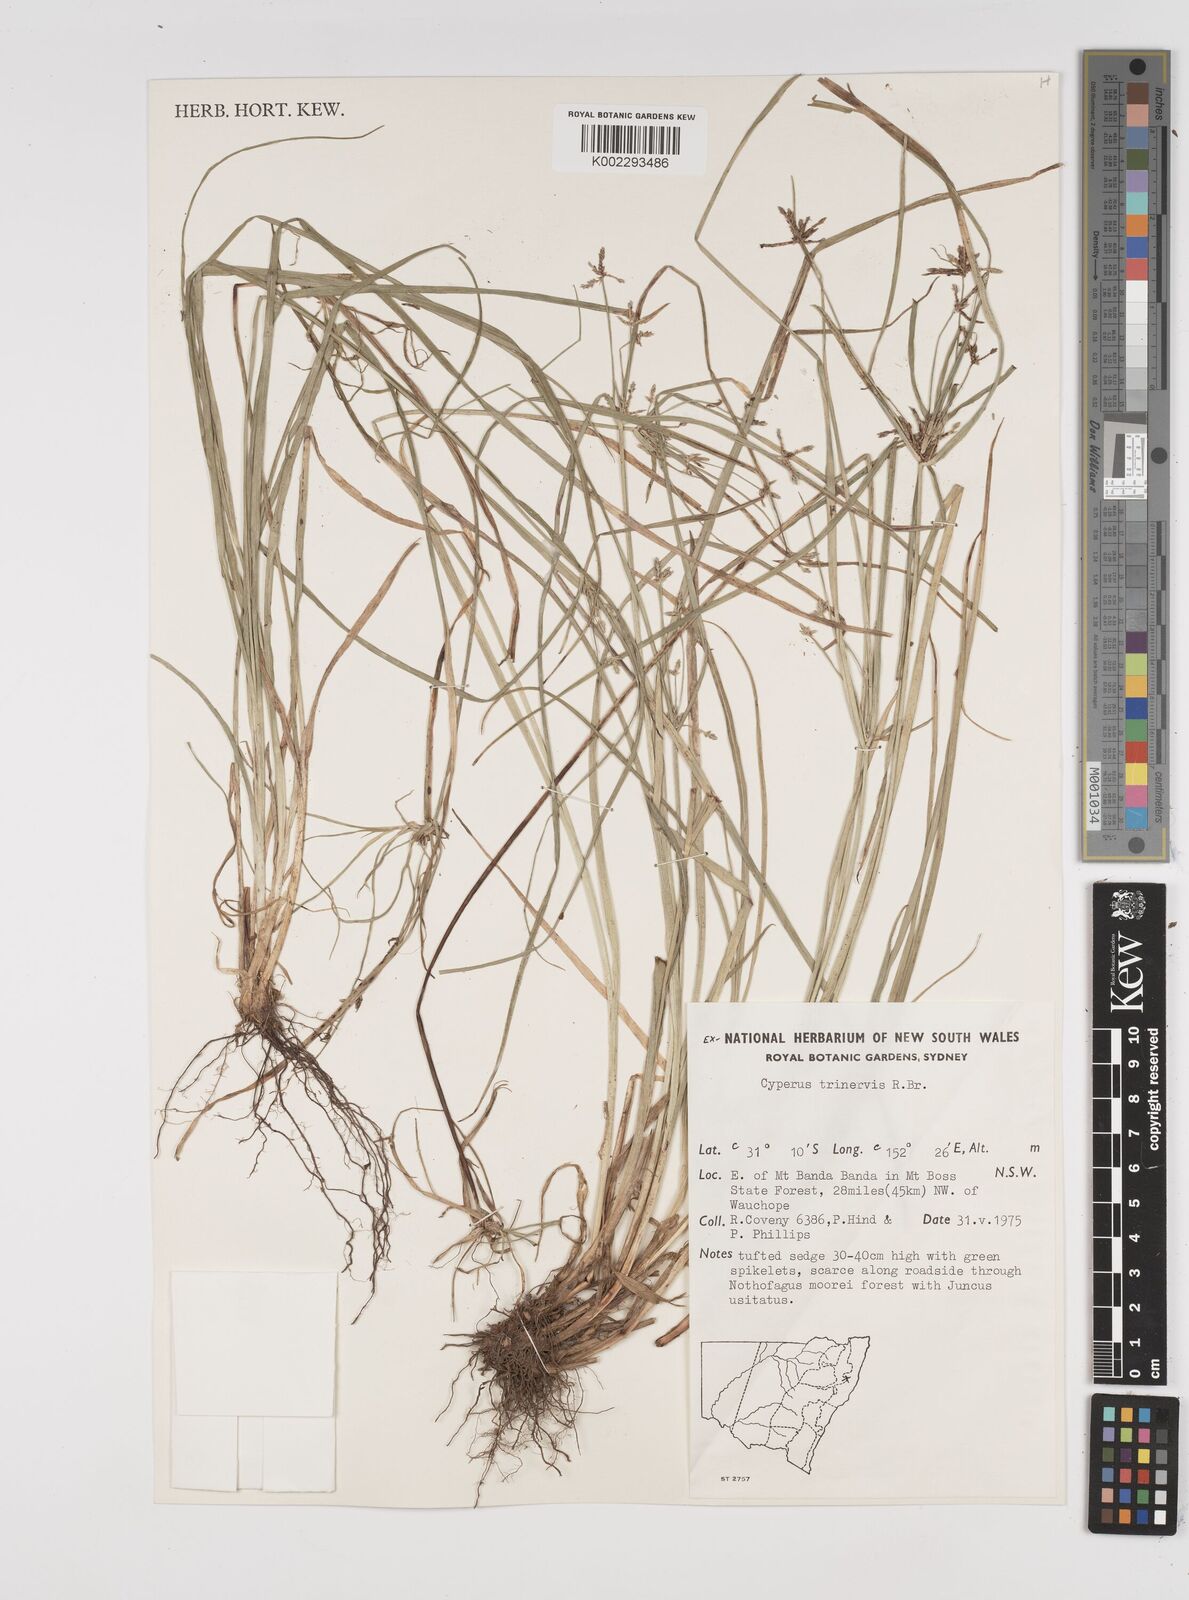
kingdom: Plantae
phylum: Tracheophyta
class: Liliopsida
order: Poales
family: Cyperaceae
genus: Cyperus
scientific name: Cyperus trinervis
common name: Australian flatsedge
